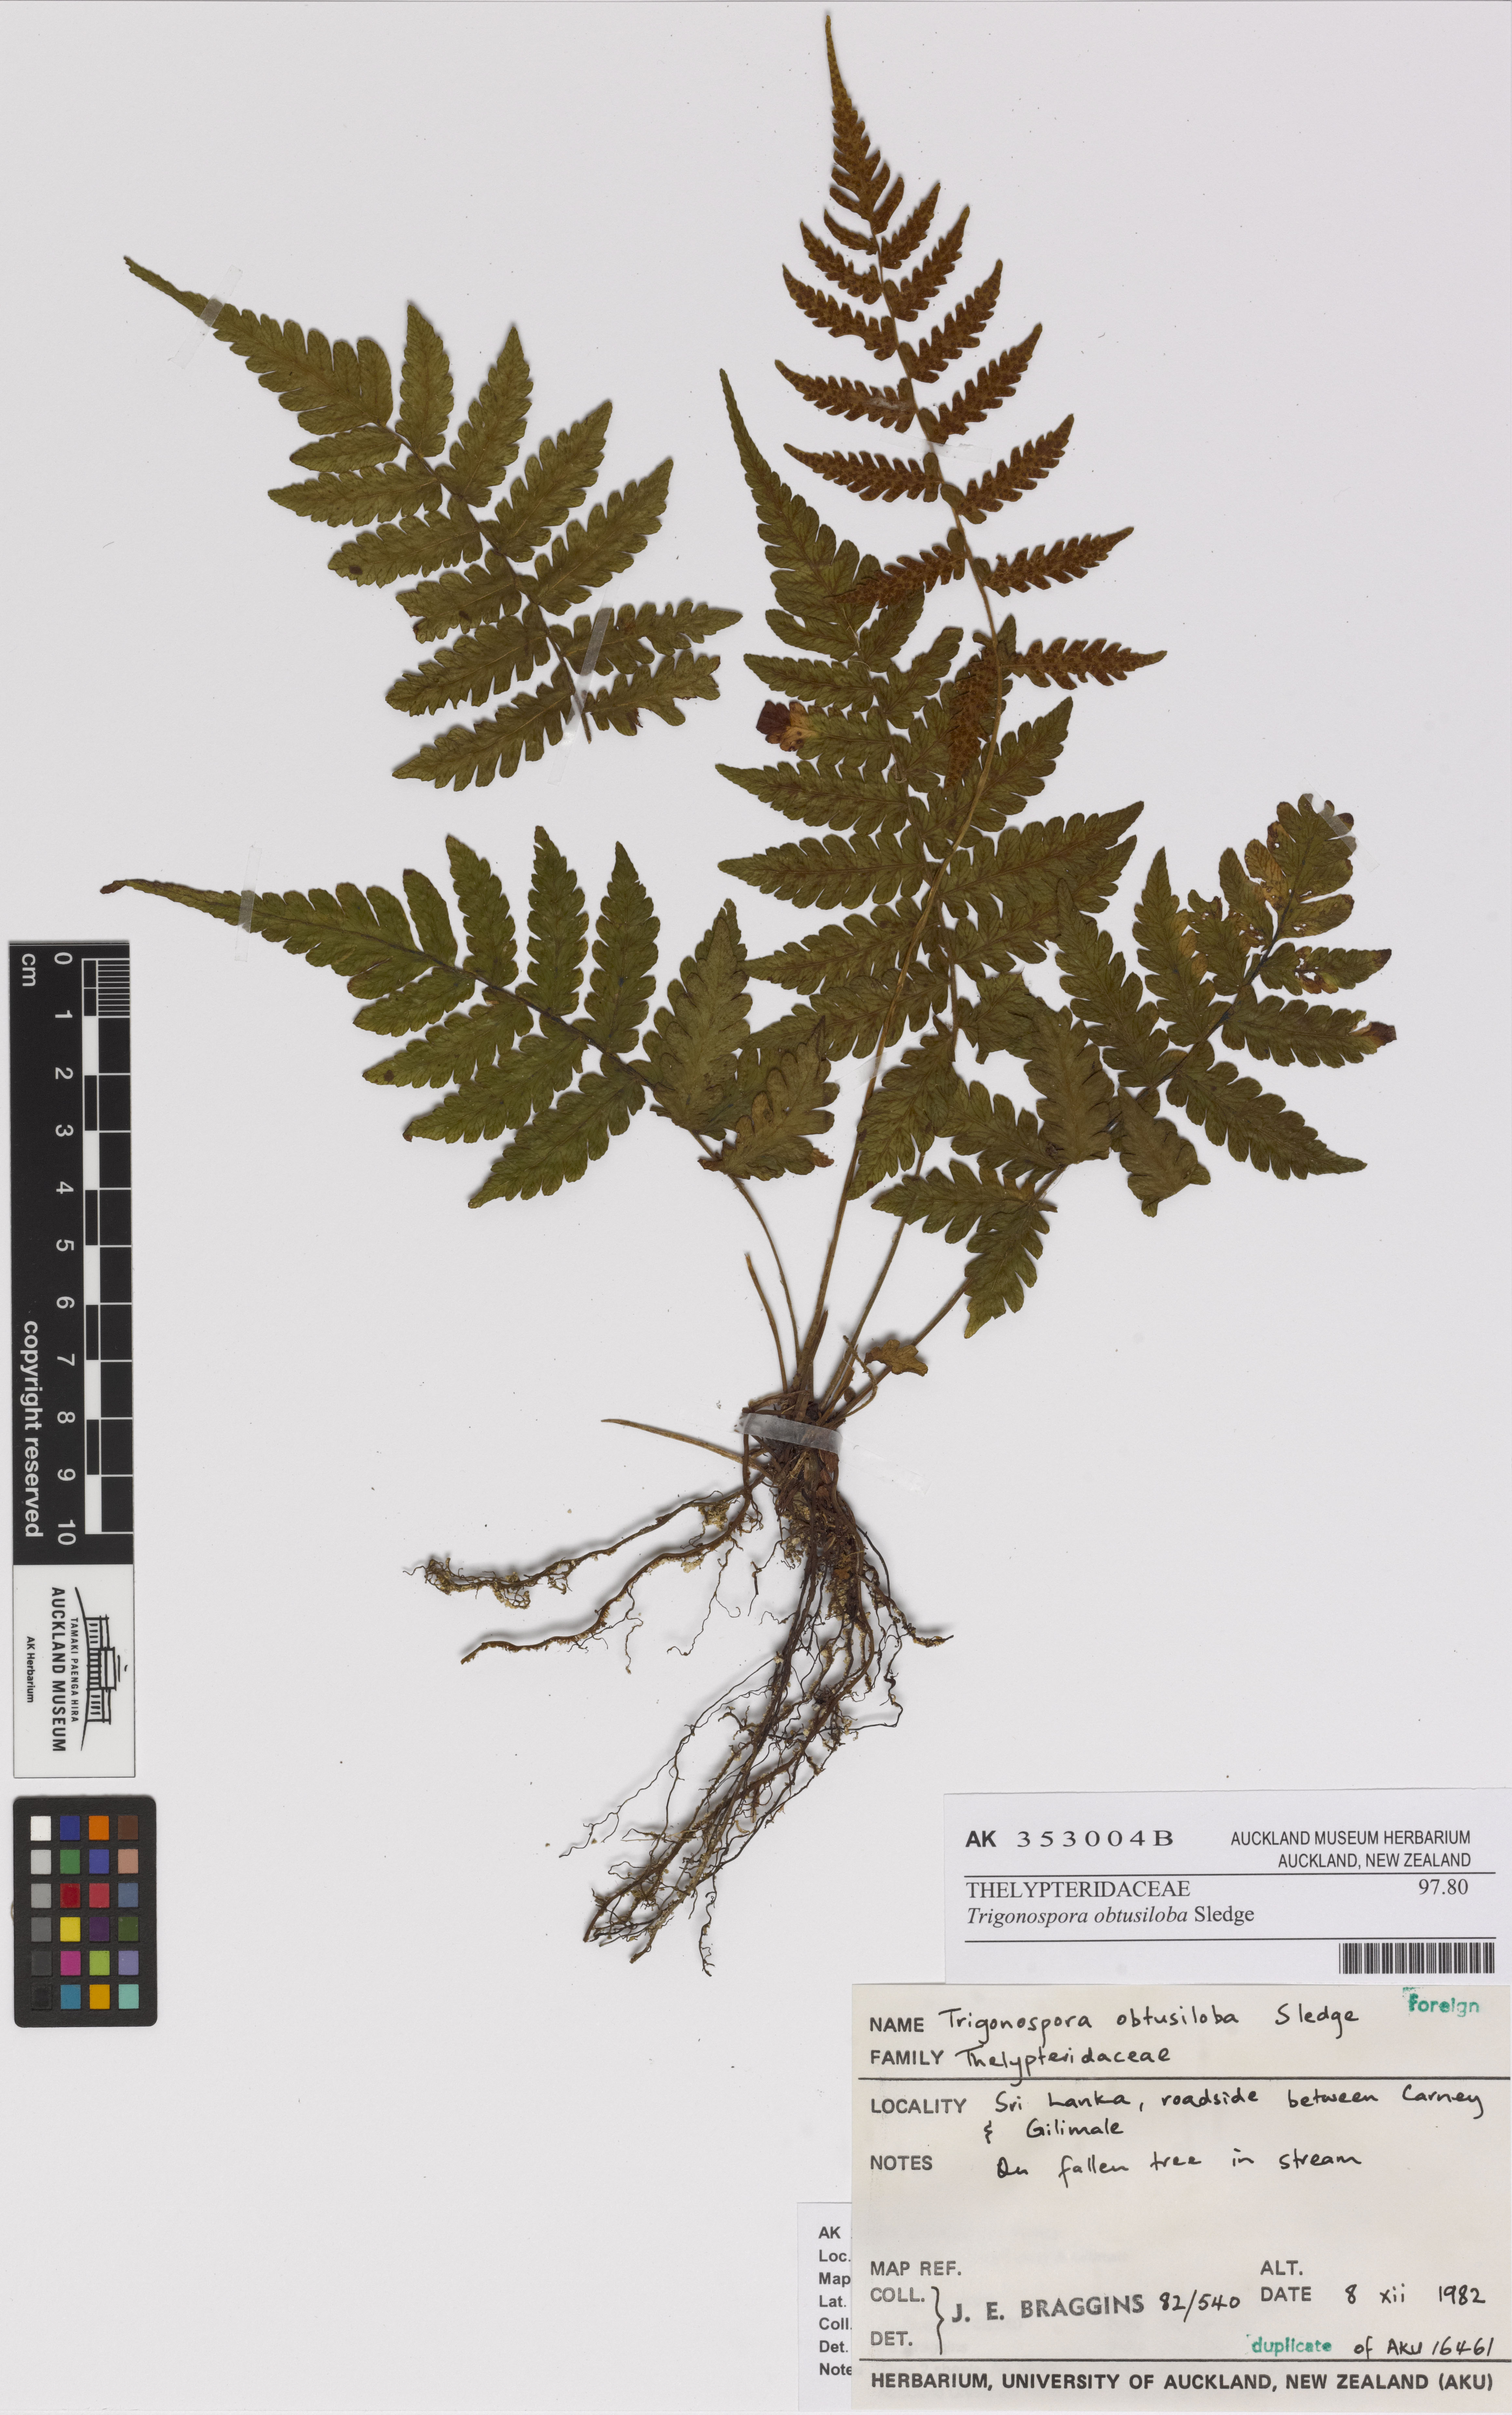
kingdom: Plantae
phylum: Tracheophyta
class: Polypodiopsida
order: Polypodiales
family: Thelypteridaceae
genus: Trigonospora
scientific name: Trigonospora caudipinna
